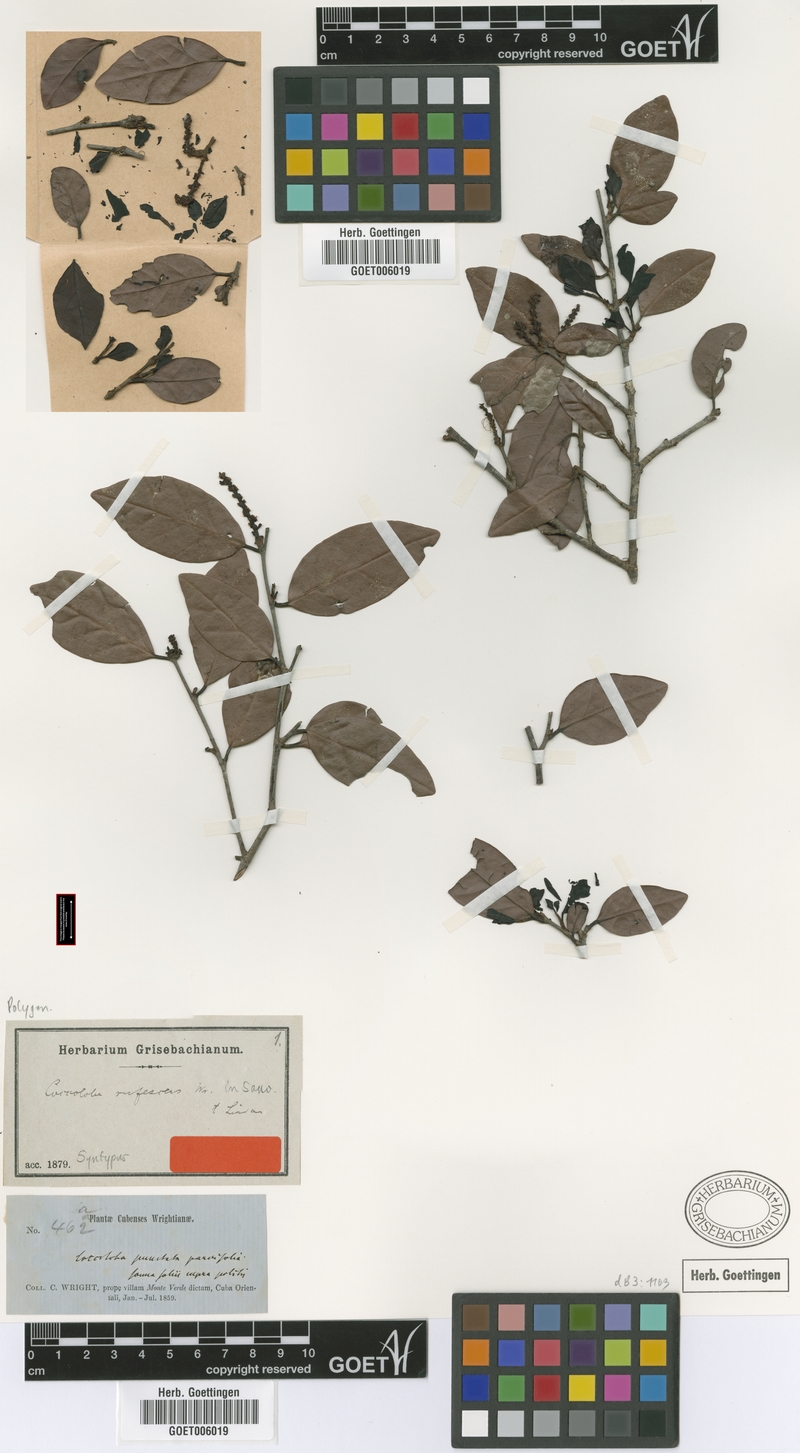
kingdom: Plantae
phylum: Tracheophyta
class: Magnoliopsida
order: Caryophyllales
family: Polygonaceae
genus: Coccoloba
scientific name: Coccoloba rufescens
